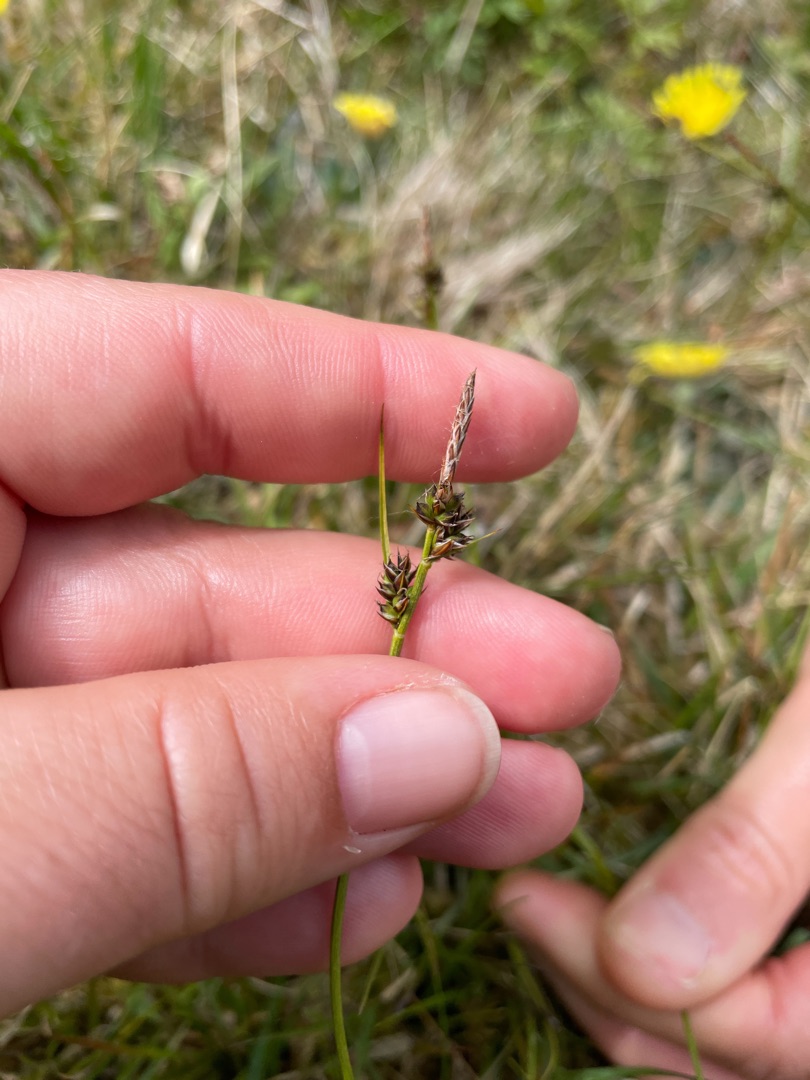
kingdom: Plantae
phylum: Tracheophyta
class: Liliopsida
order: Poales
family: Cyperaceae
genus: Carex
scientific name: Carex pilulifera
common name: Pille-star
